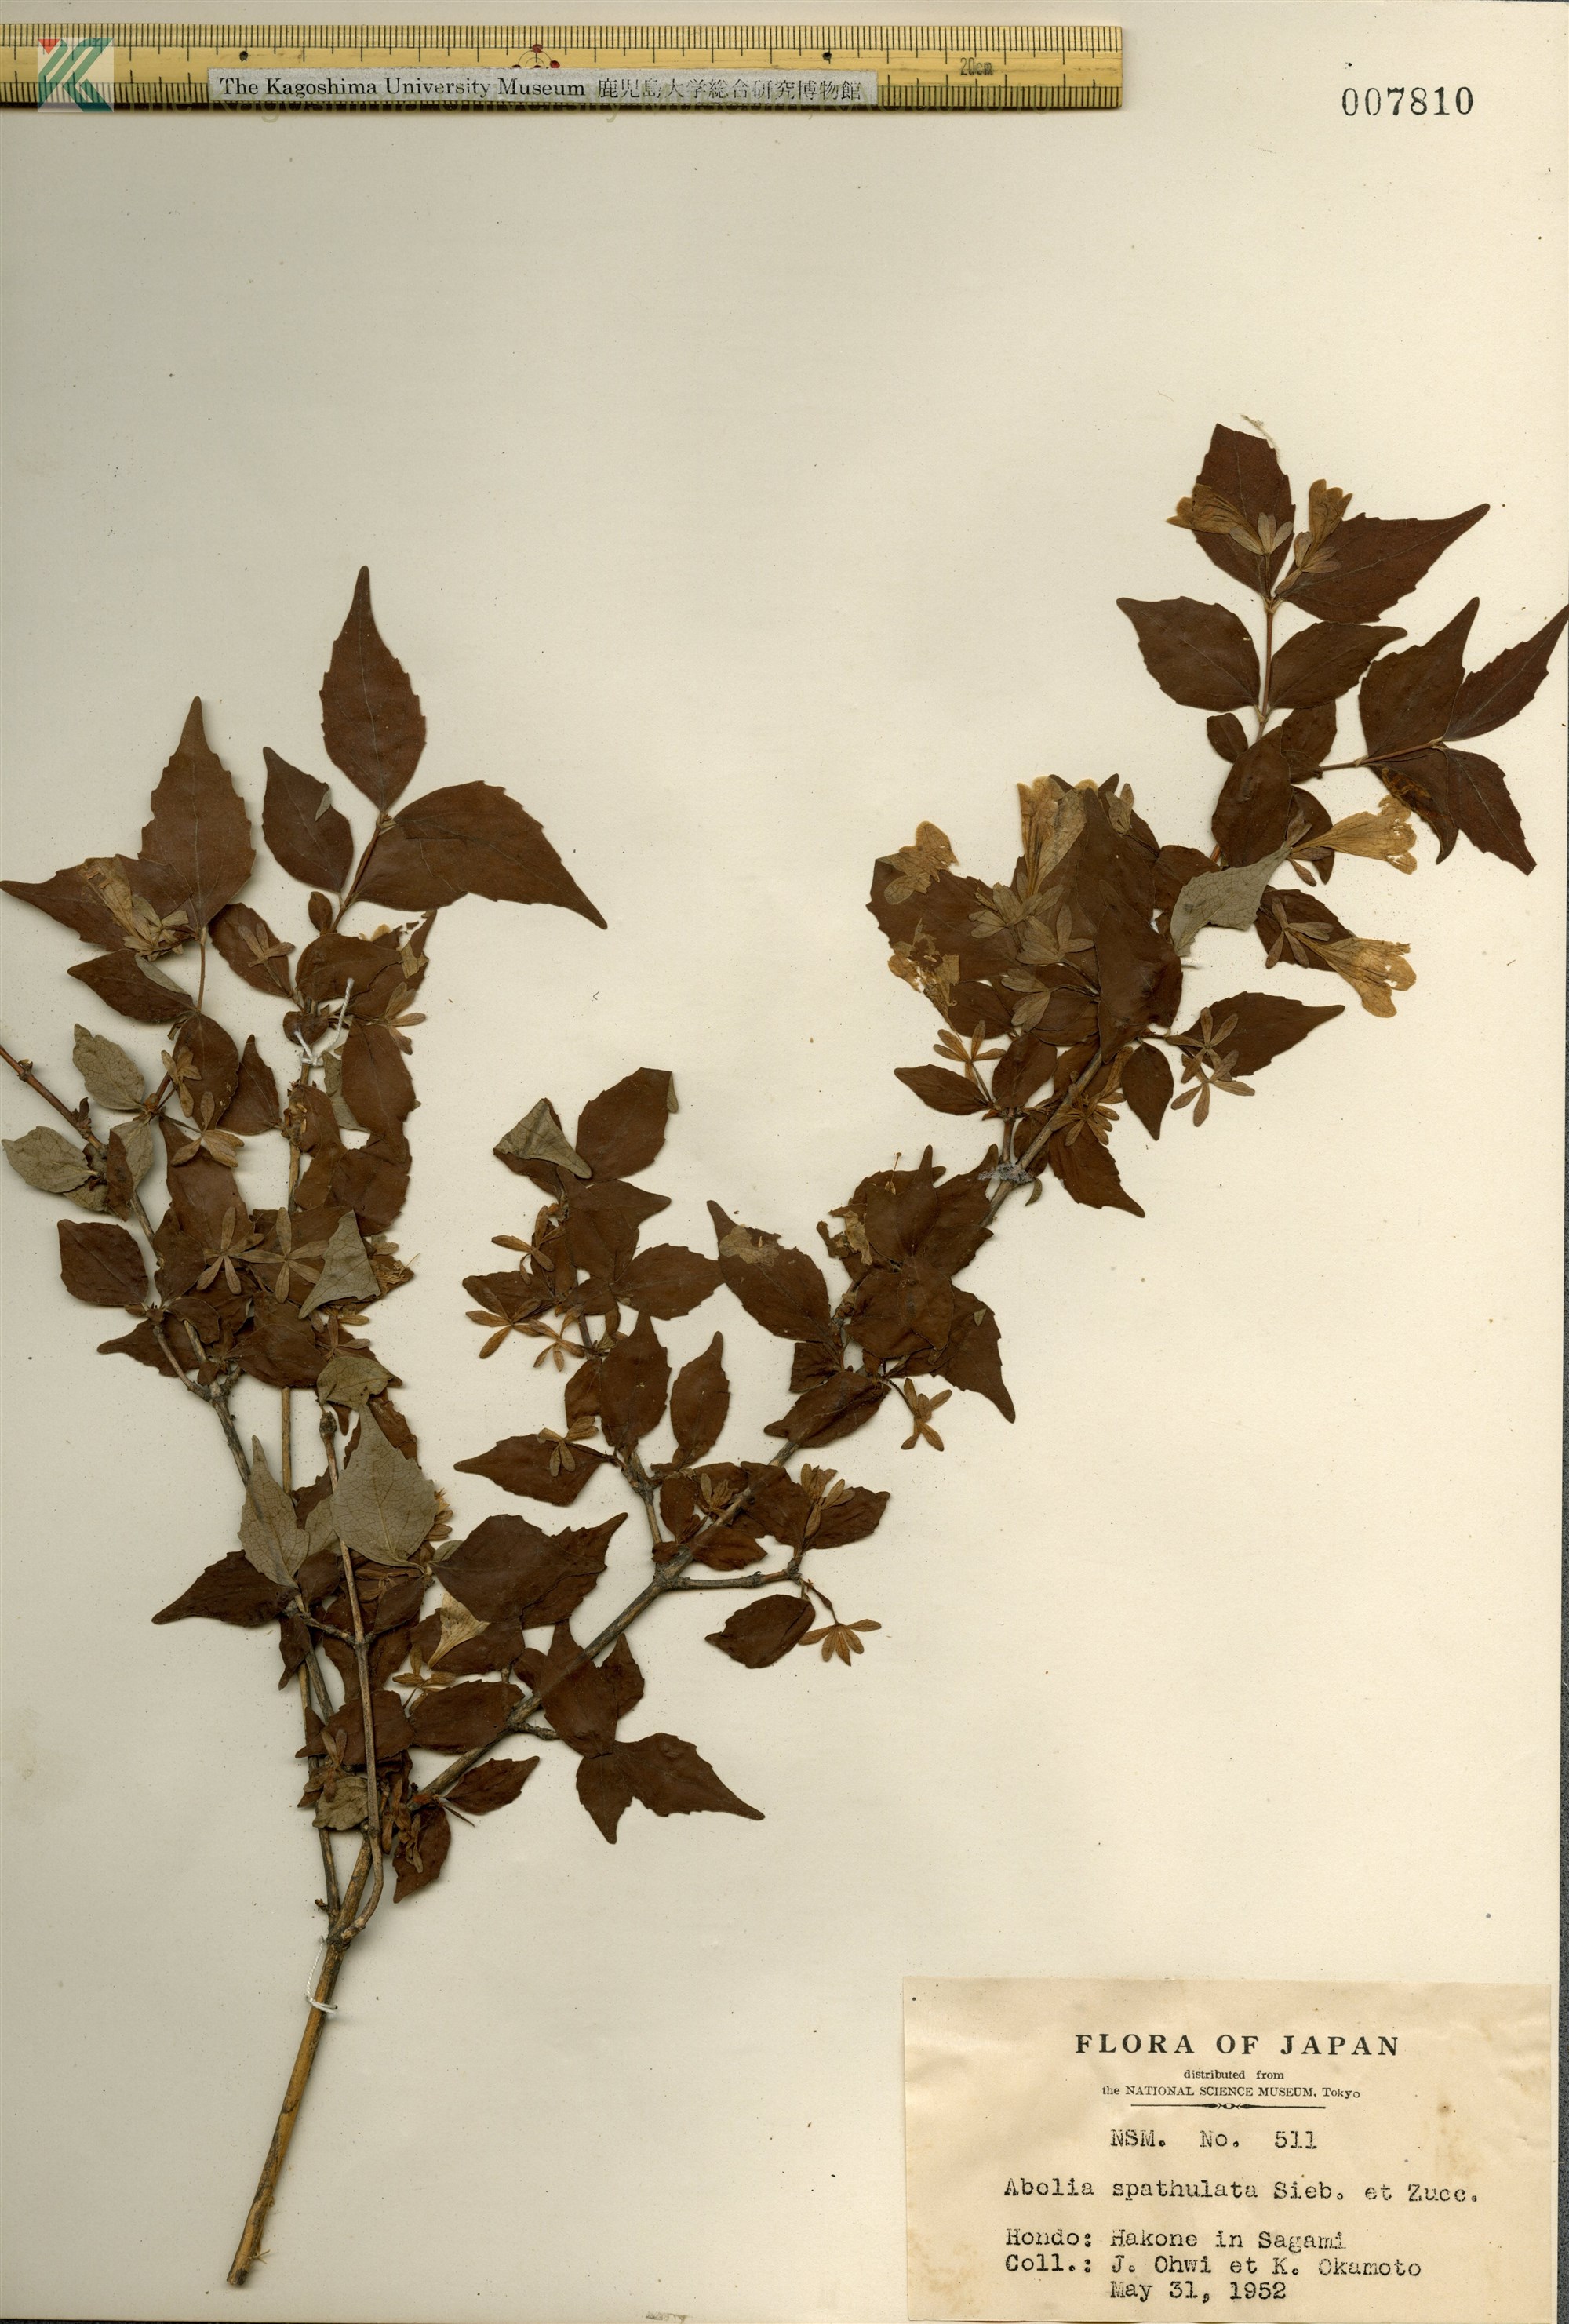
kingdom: Plantae
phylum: Tracheophyta
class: Magnoliopsida
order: Dipsacales
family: Caprifoliaceae
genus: Diabelia
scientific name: Diabelia spathulata
